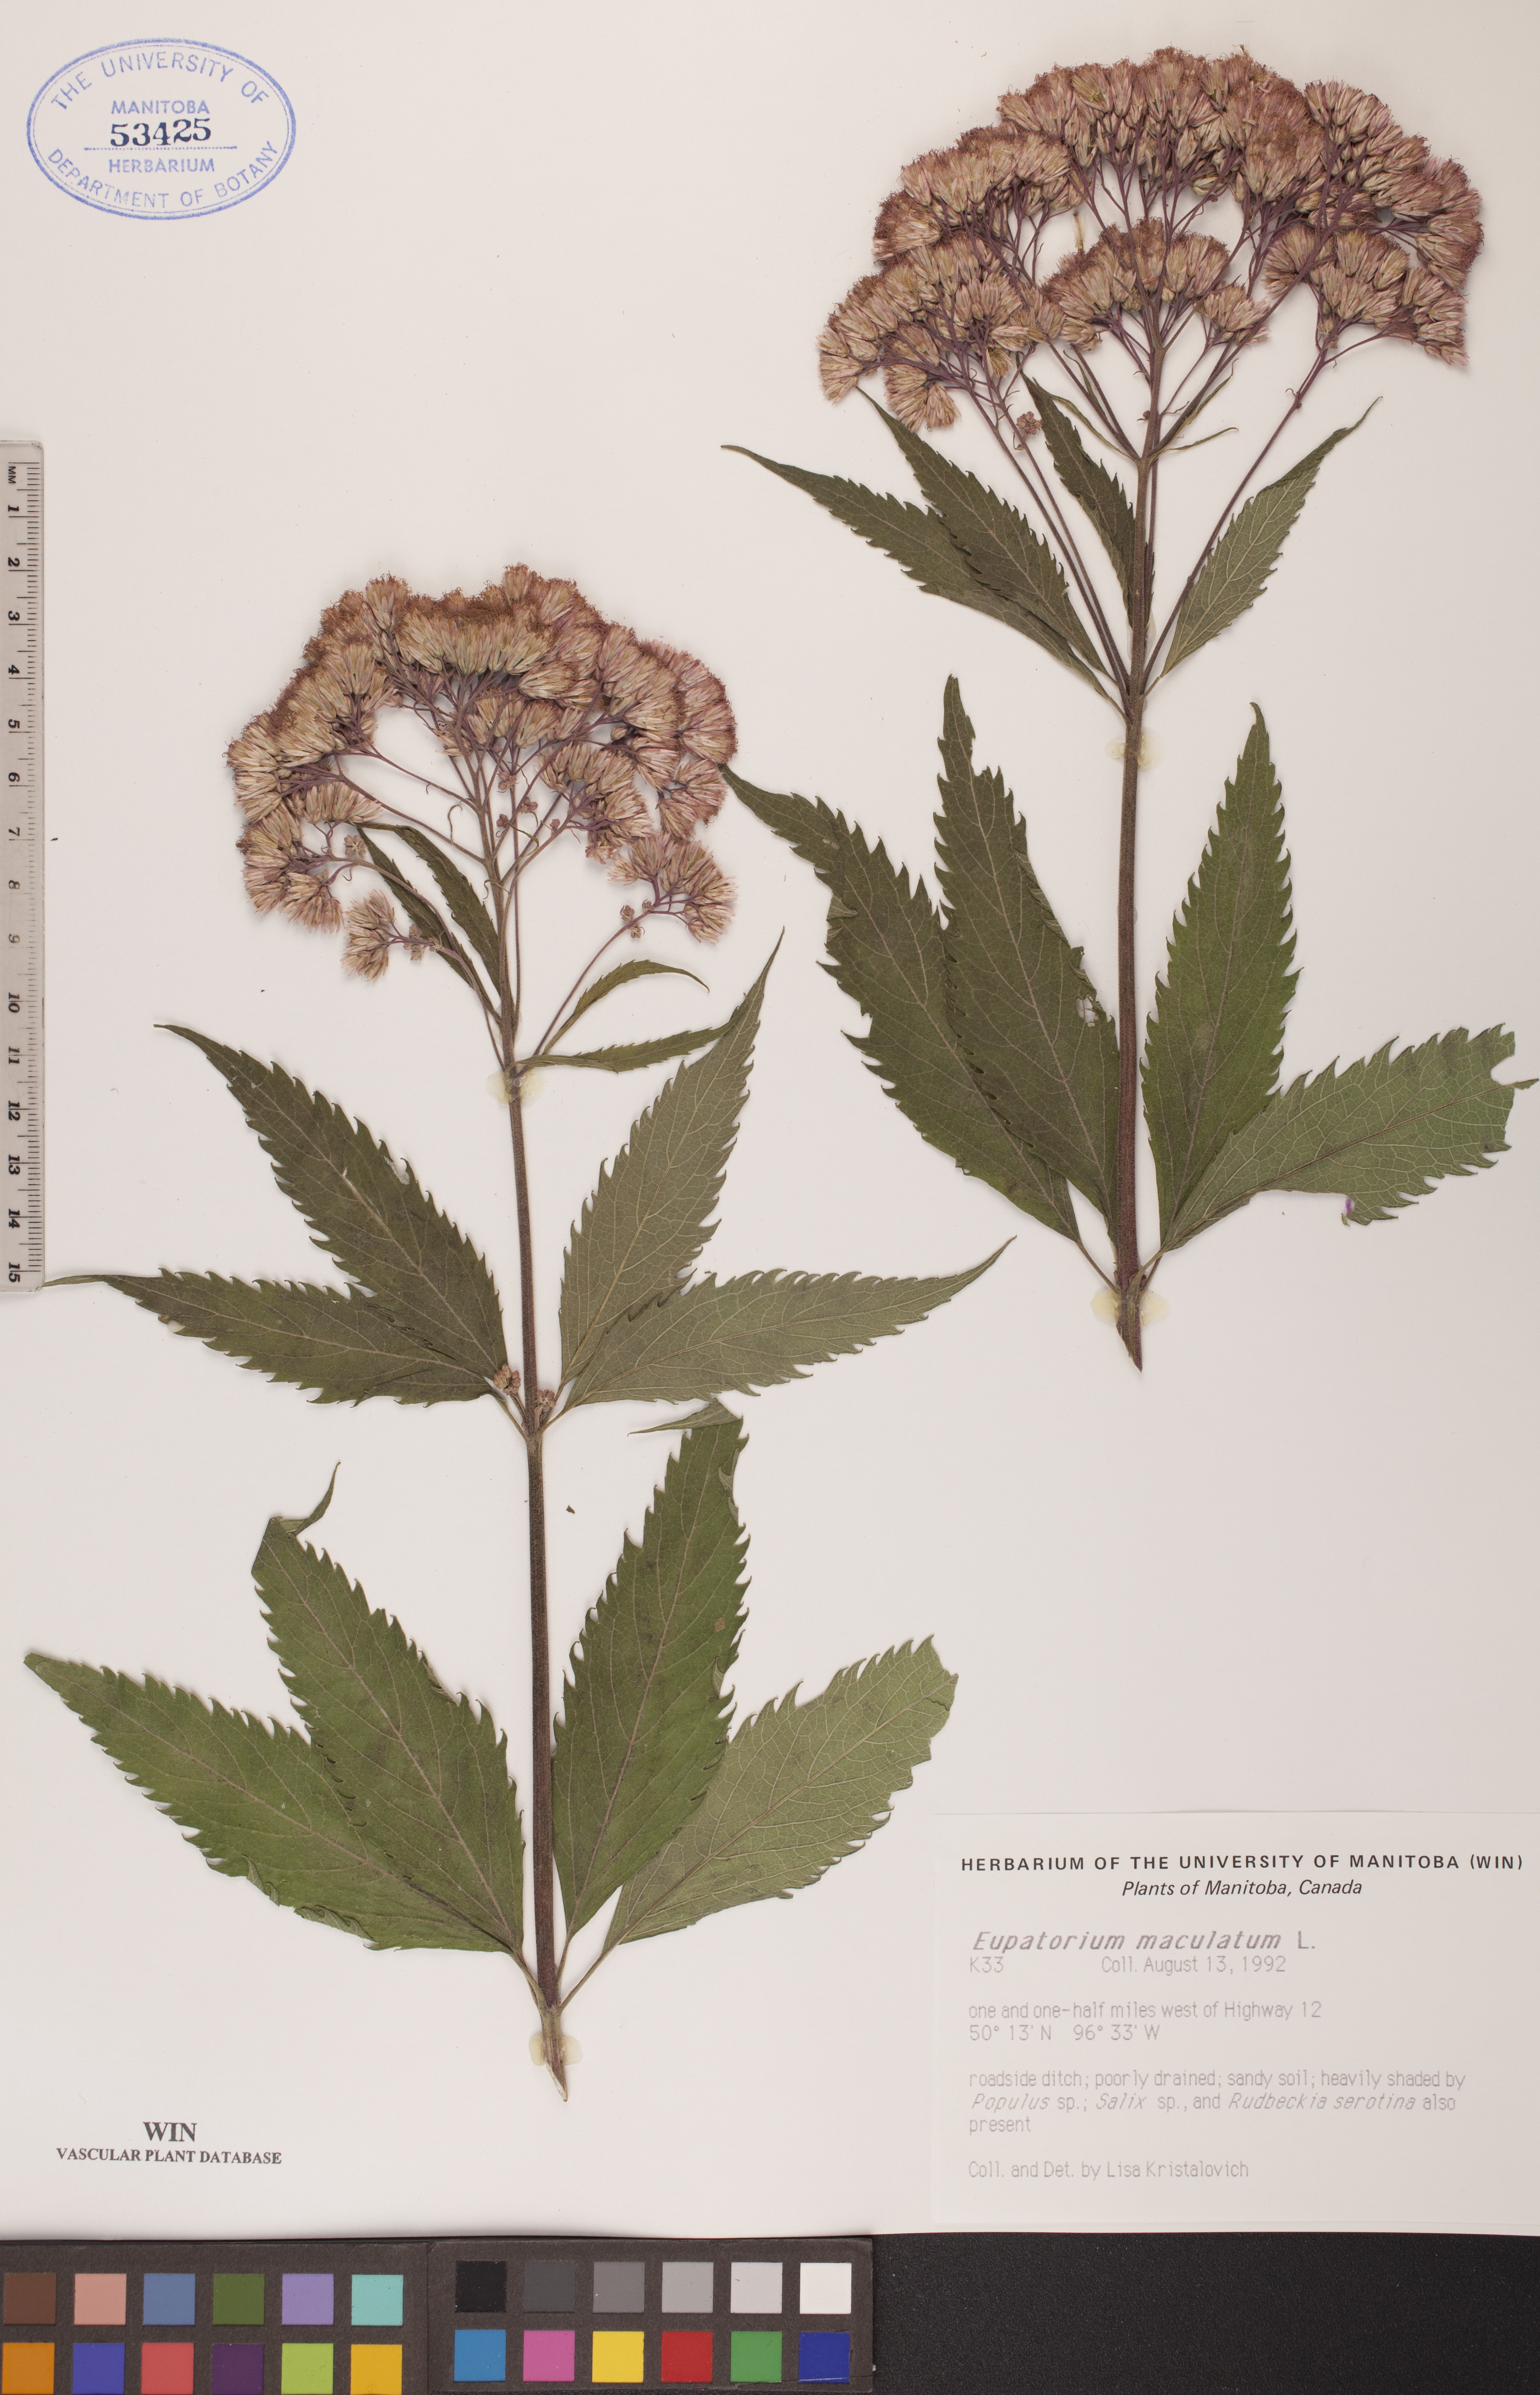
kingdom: Plantae
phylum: Tracheophyta
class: Magnoliopsida
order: Asterales
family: Asteraceae
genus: Eutrochium
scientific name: Eutrochium maculatum
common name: Spotted joe pye weed
